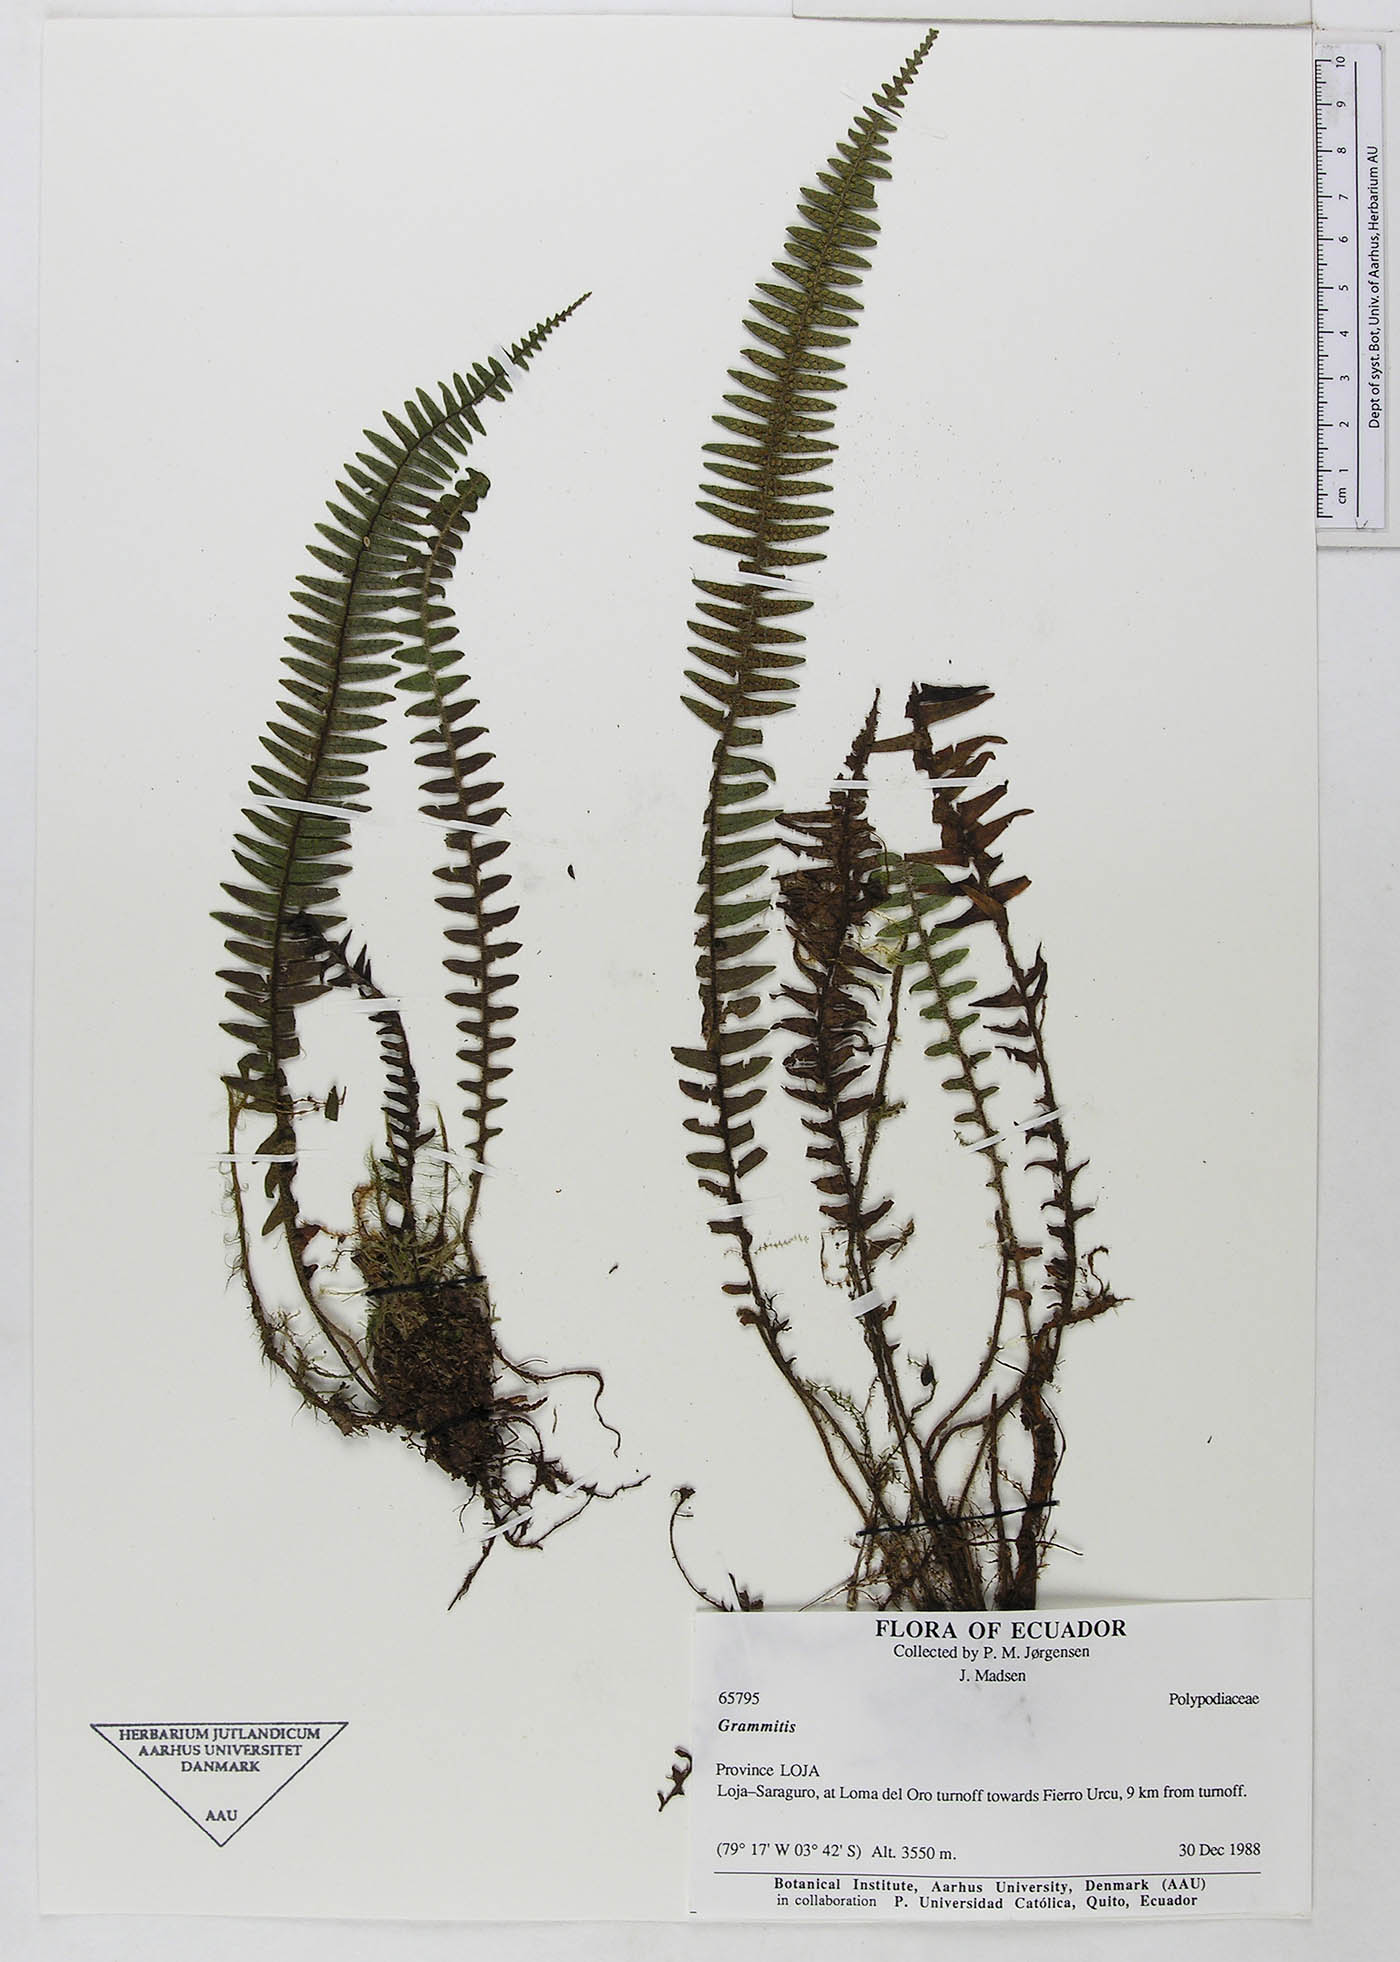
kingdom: Plantae
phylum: Tracheophyta
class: Polypodiopsida
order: Polypodiales
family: Polypodiaceae
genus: Ascogrammitis
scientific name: Ascogrammitis pichinchae
